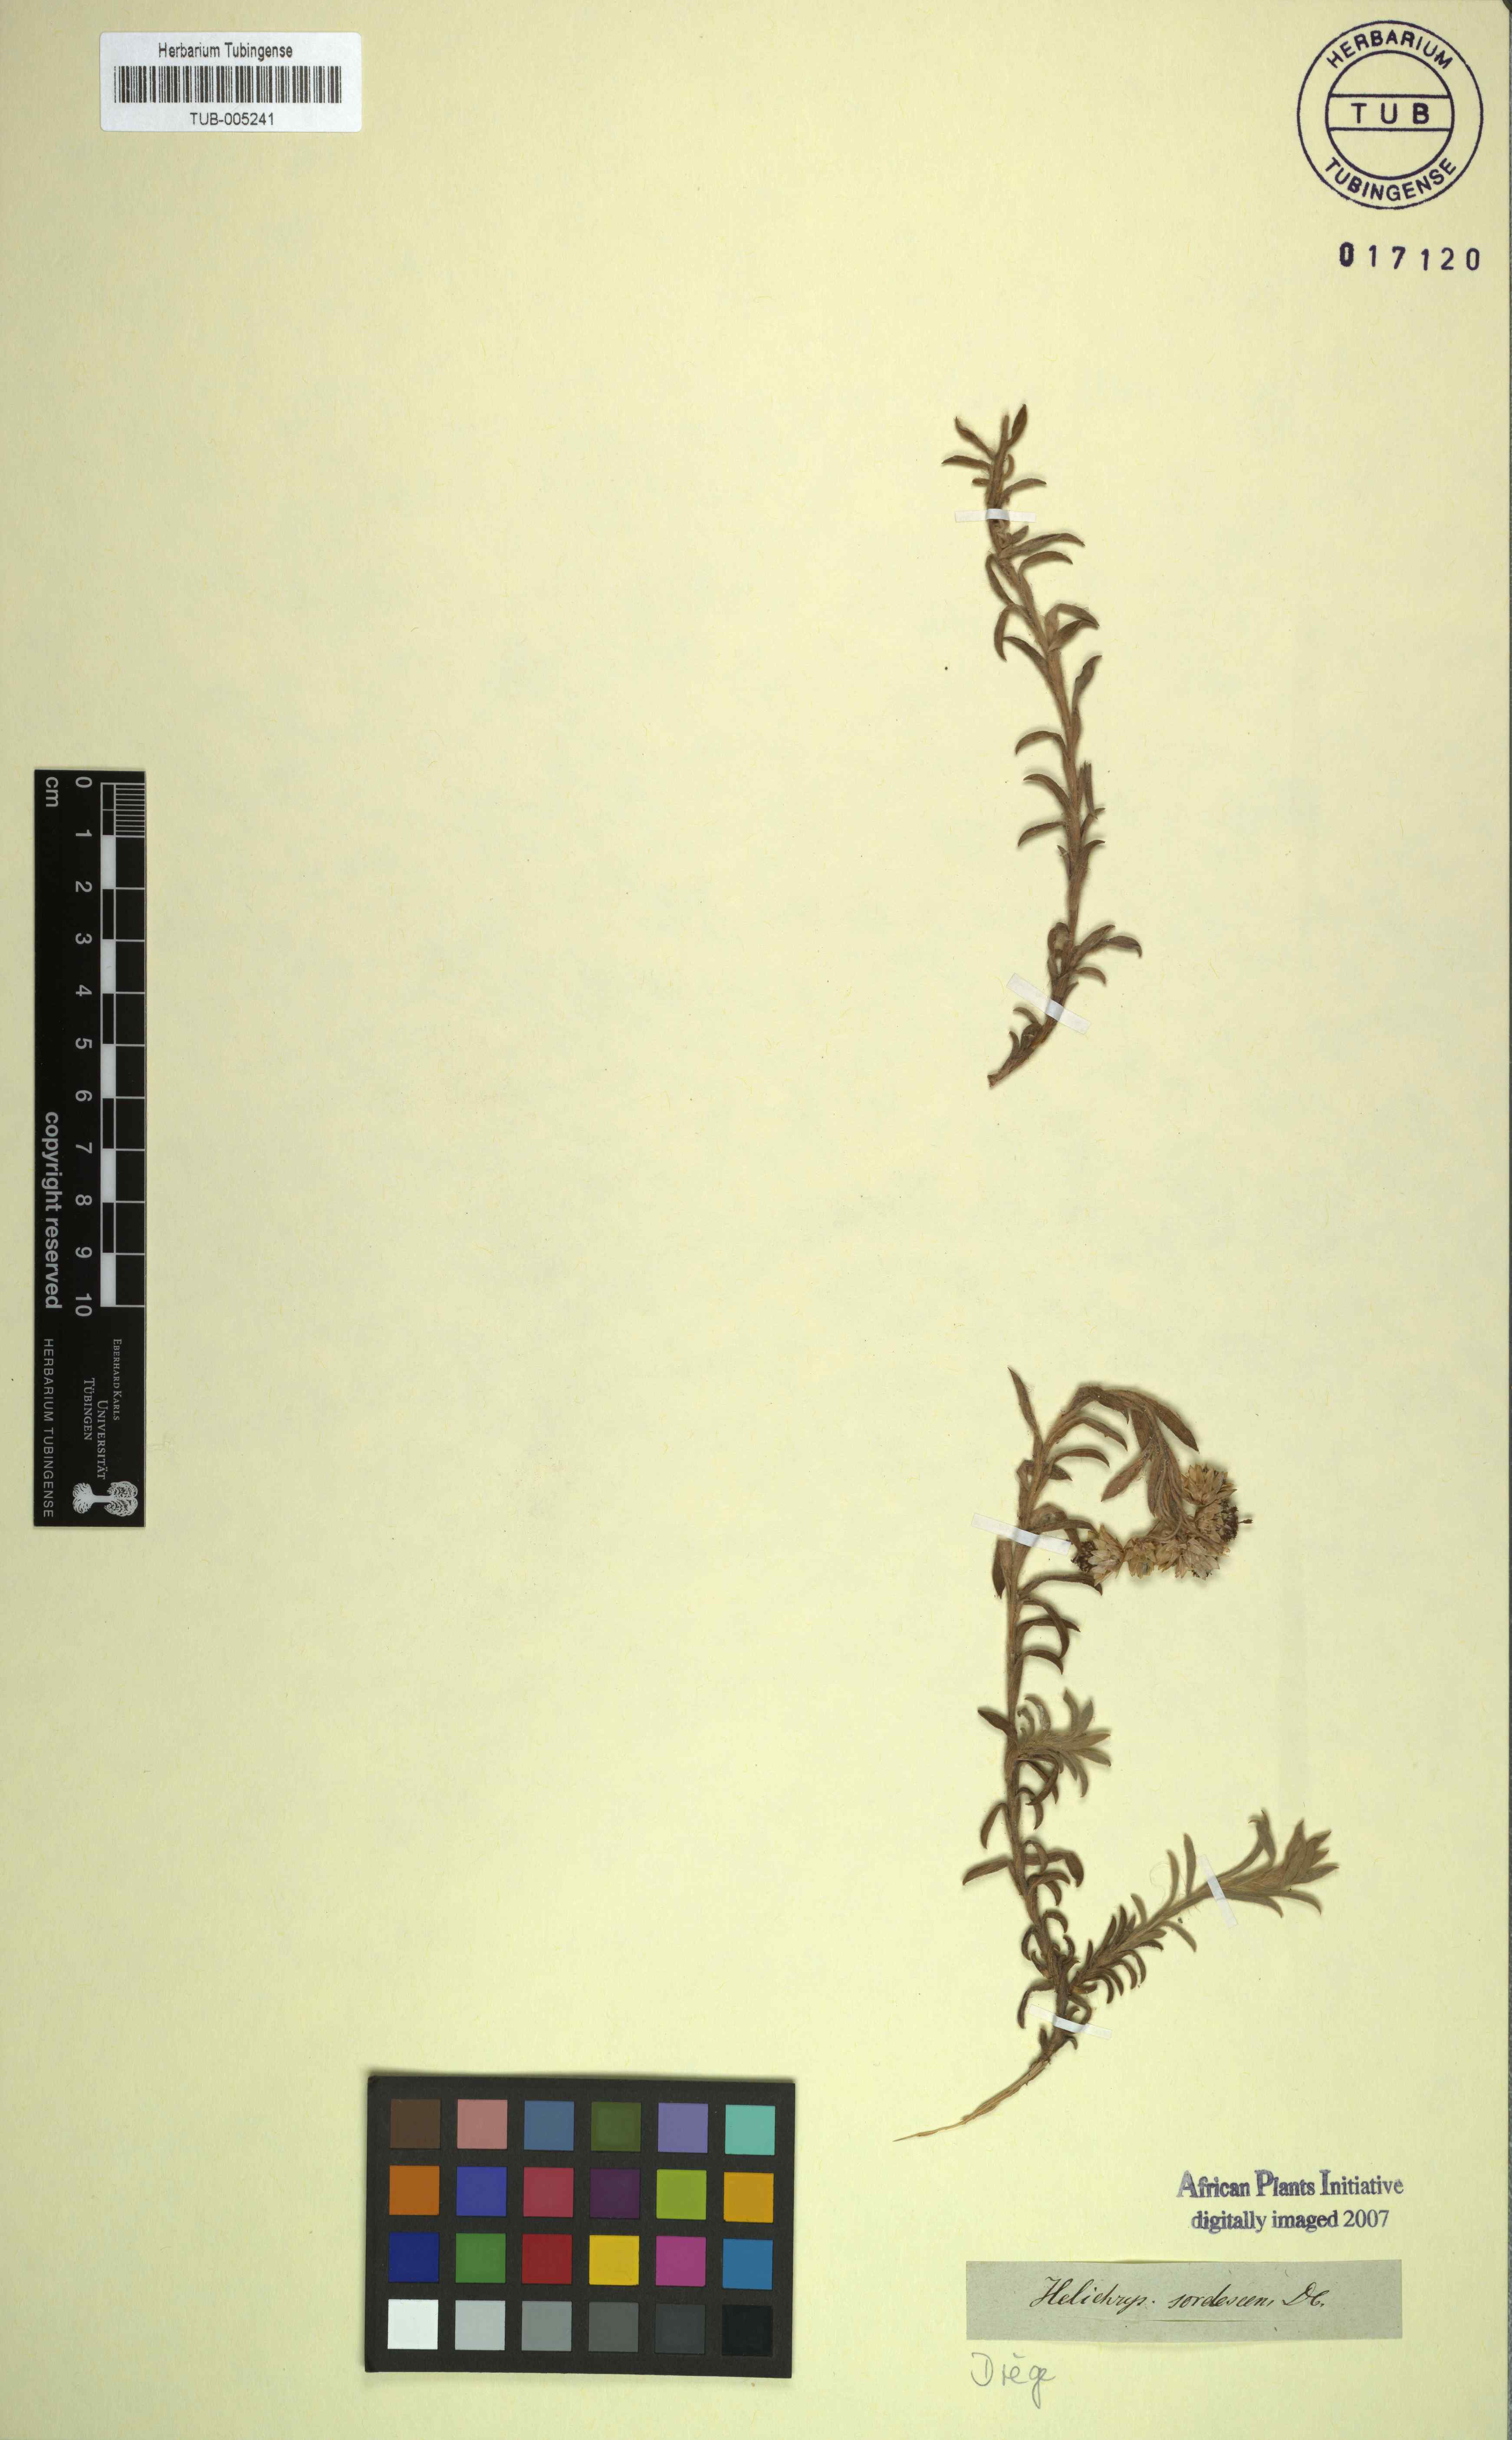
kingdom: Plantae
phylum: Tracheophyta
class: Magnoliopsida
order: Asterales
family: Asteraceae
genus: Achyranthemum
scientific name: Achyranthemum sordescens
